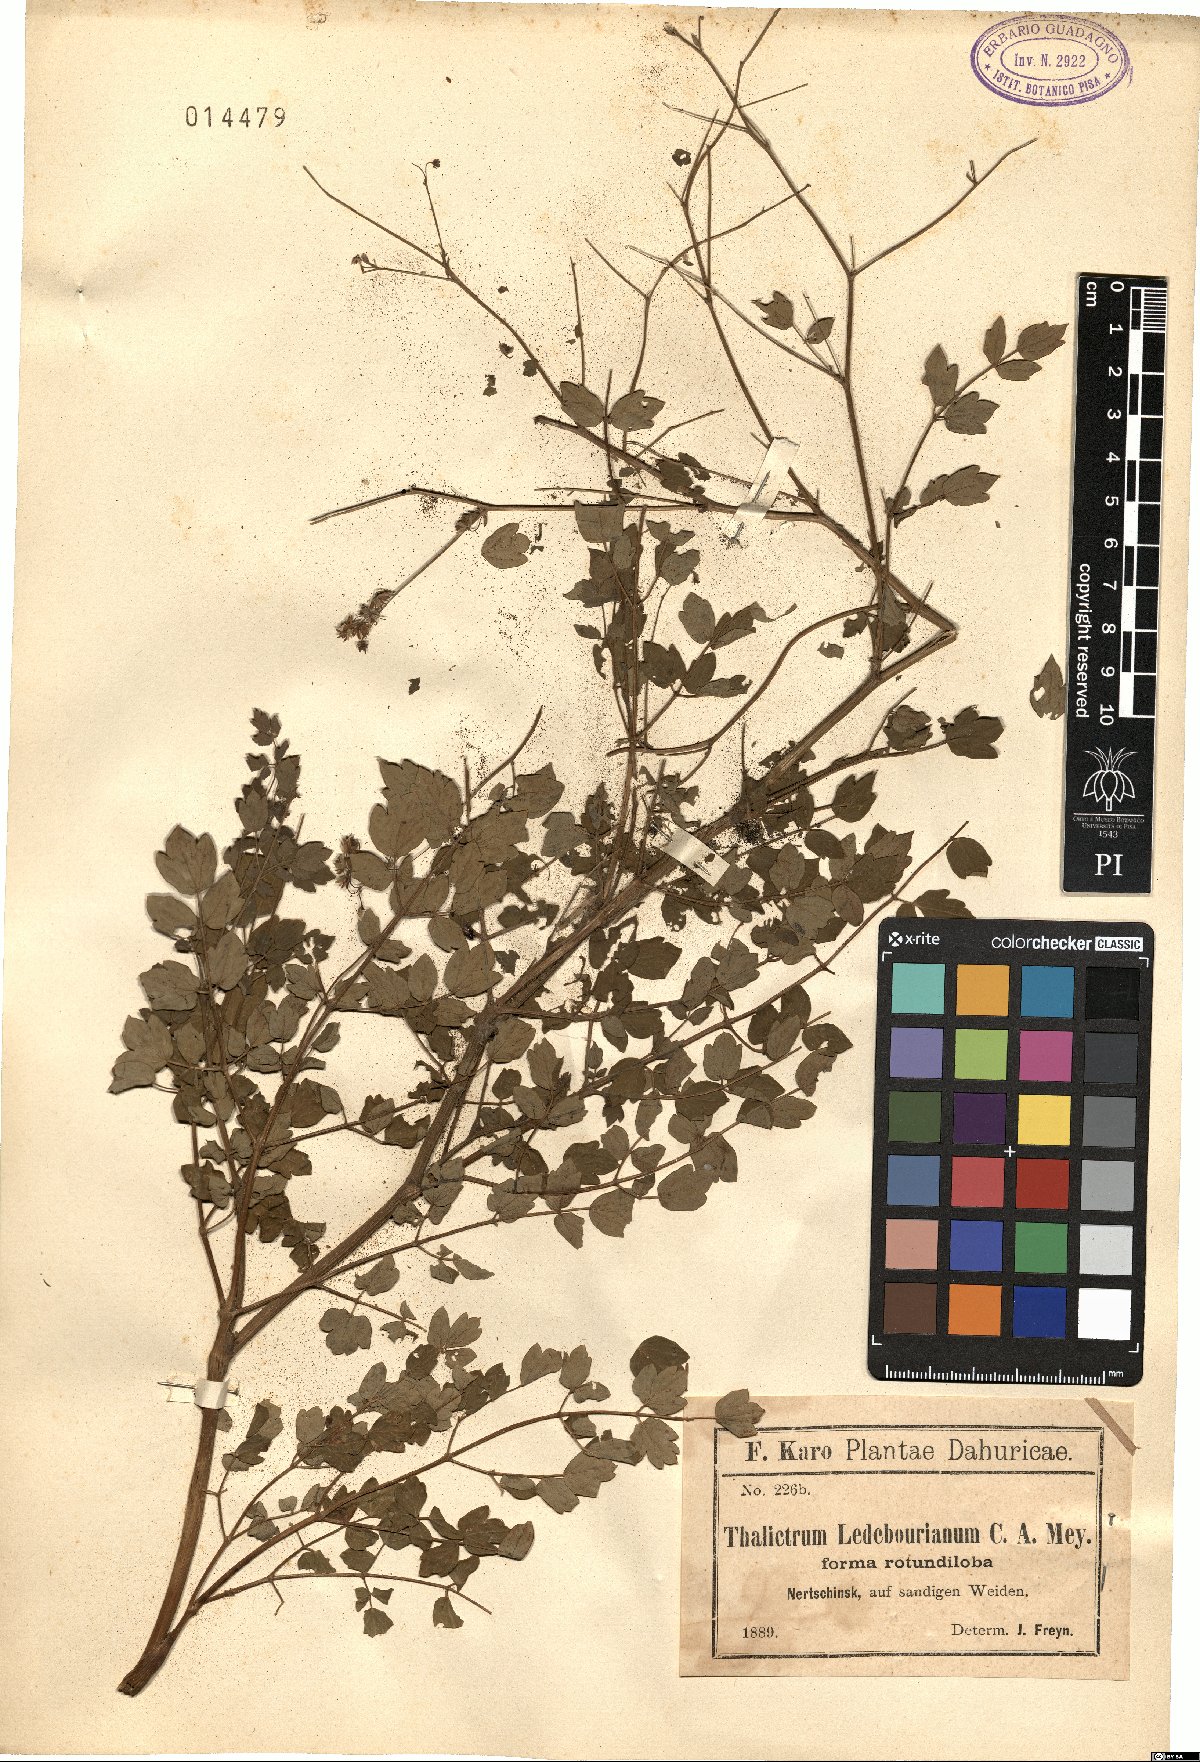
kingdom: Plantae
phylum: Tracheophyta
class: Magnoliopsida
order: Ranunculales
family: Ranunculaceae
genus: Thalictrum
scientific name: Thalictrum squarrosum
